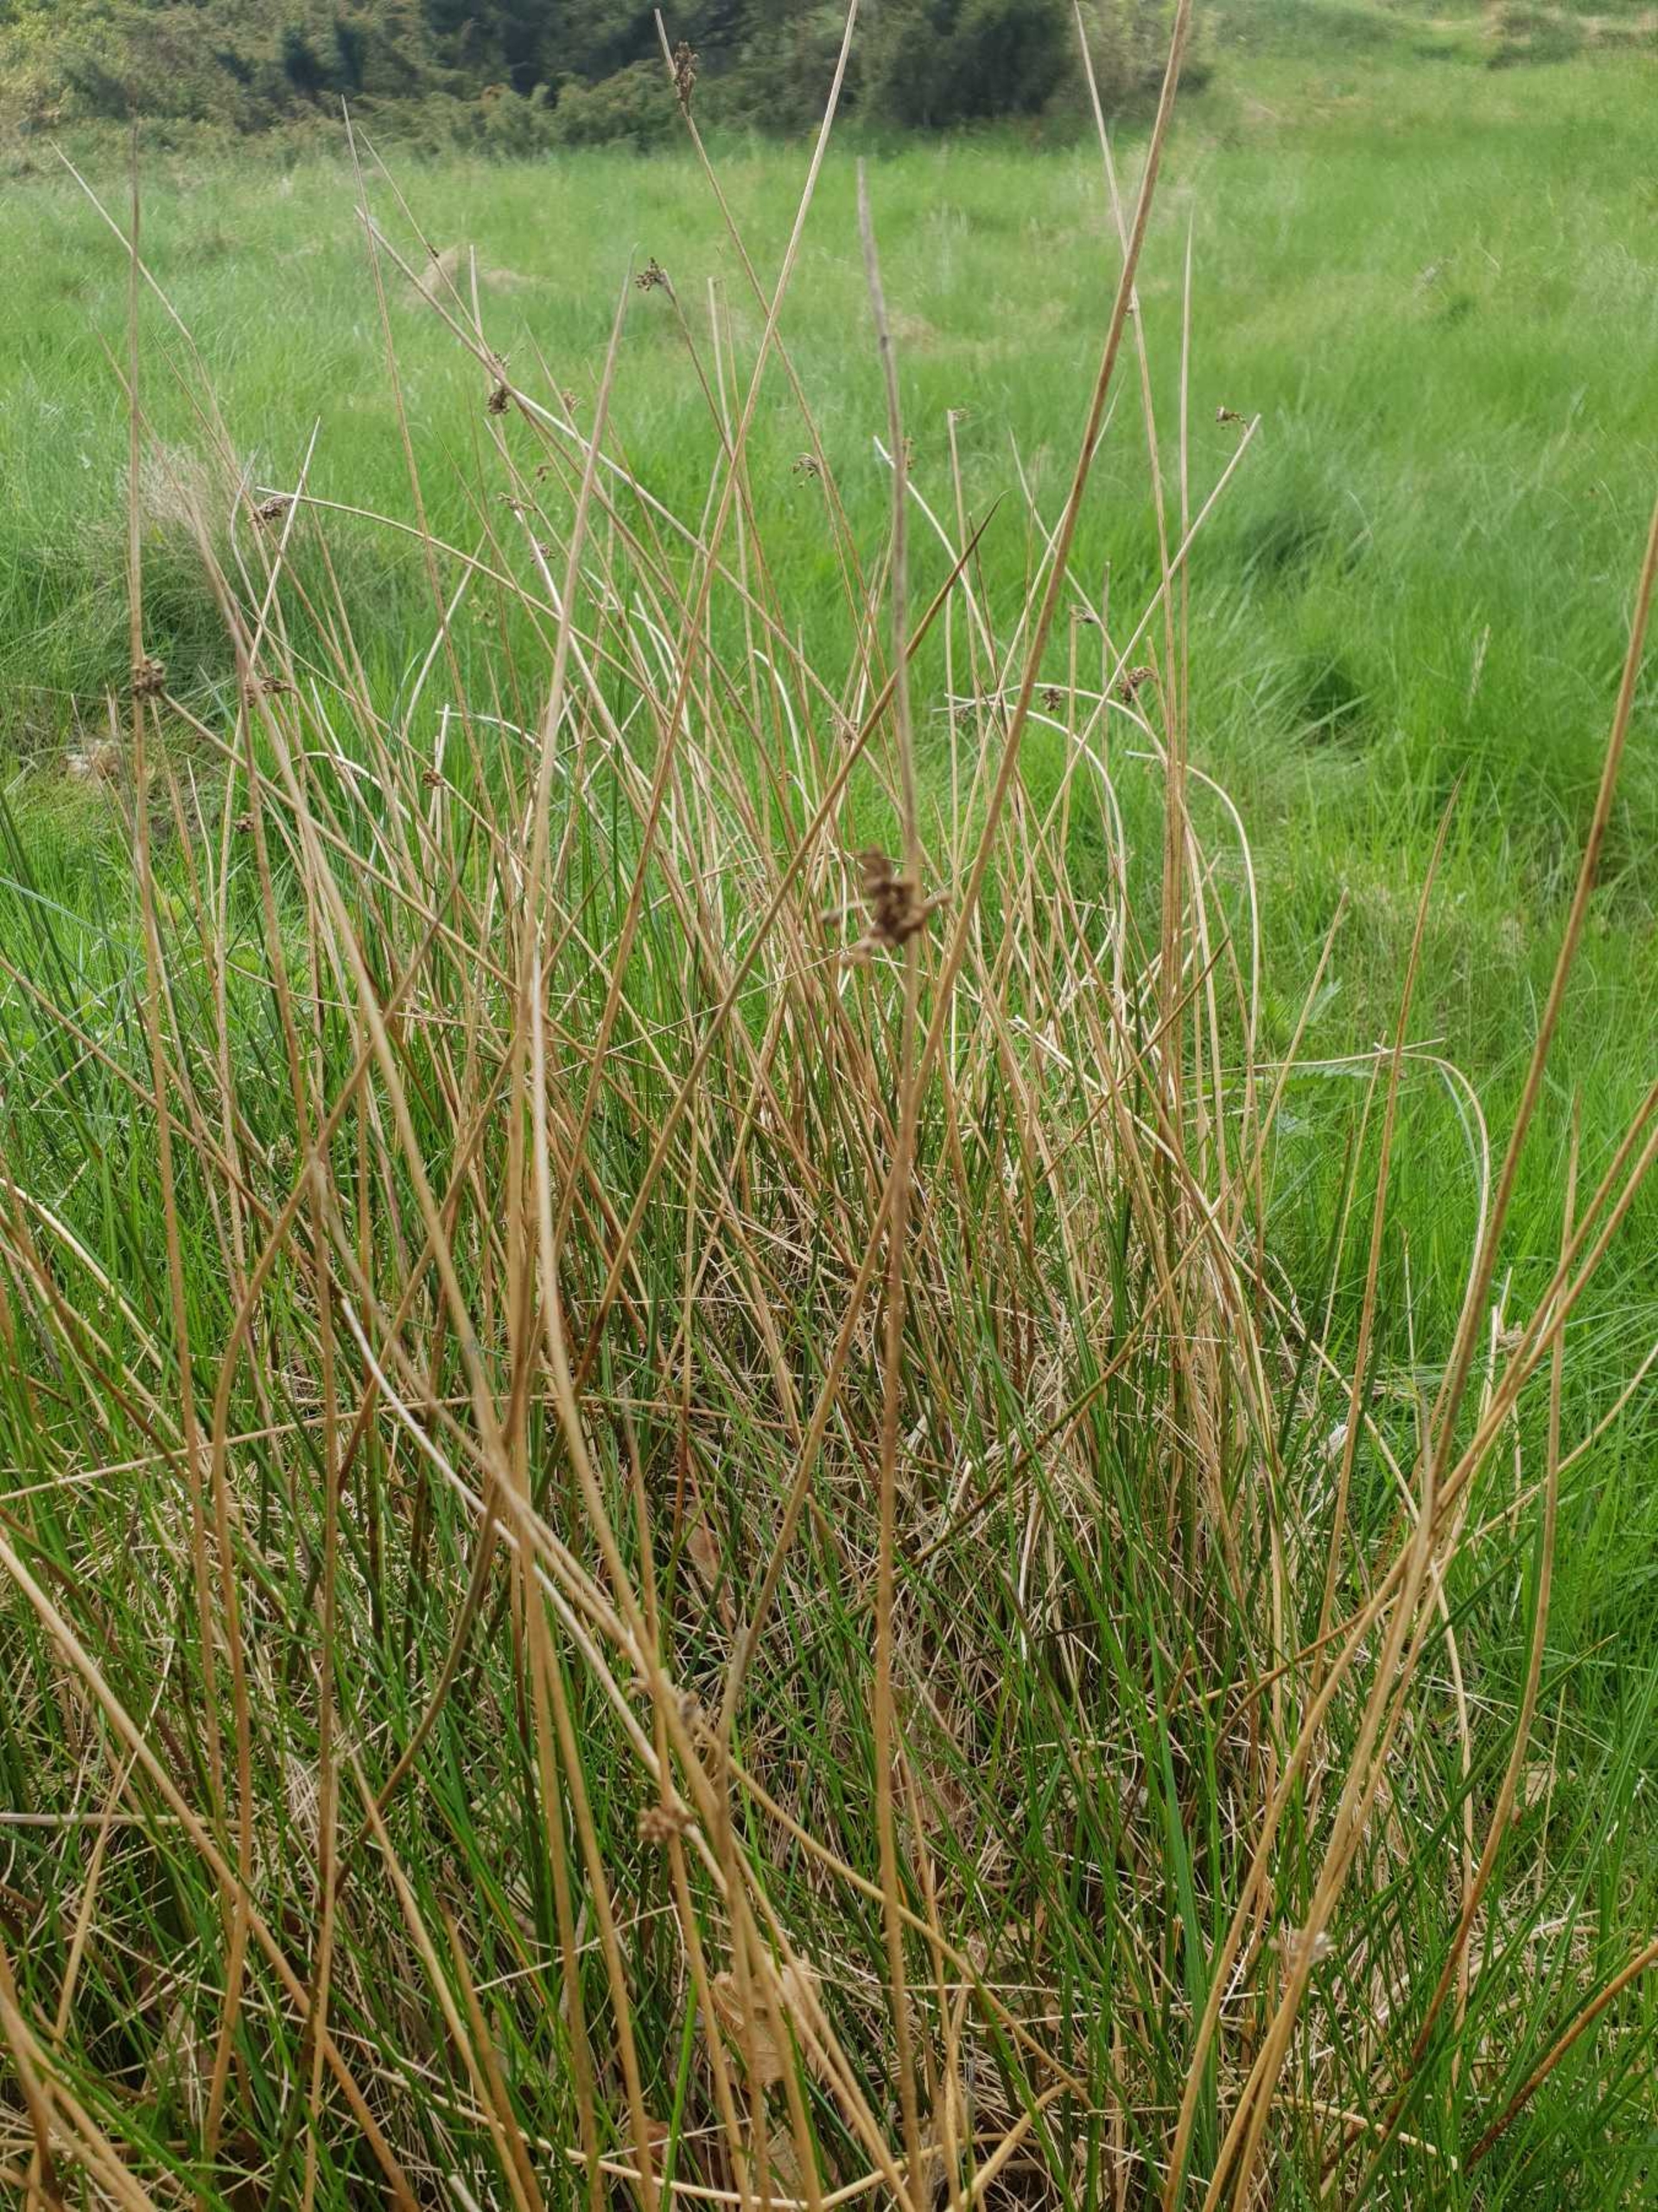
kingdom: Plantae
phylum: Tracheophyta
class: Liliopsida
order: Poales
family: Juncaceae
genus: Juncus
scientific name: Juncus effusus
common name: Lyse-siv
